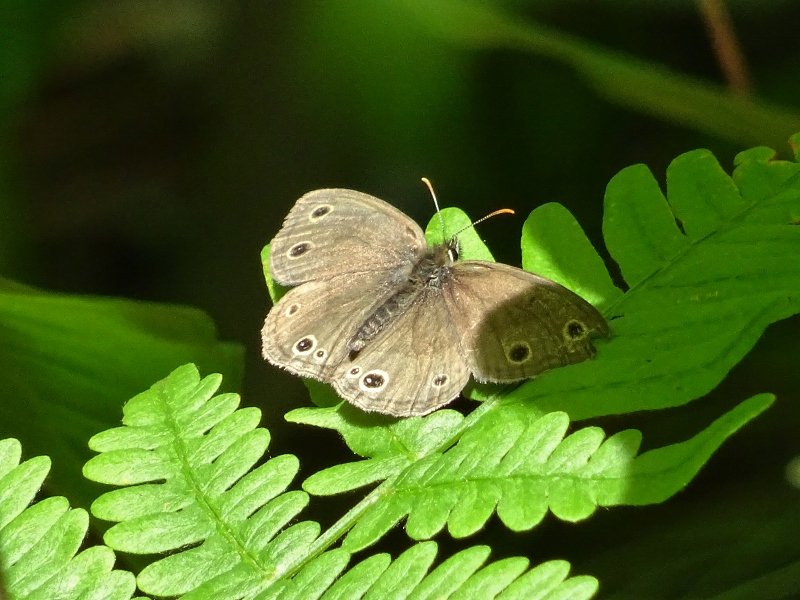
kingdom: Animalia
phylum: Arthropoda
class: Insecta
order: Lepidoptera
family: Nymphalidae
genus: Euptychia
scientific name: Euptychia cymela
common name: Little Wood Satyr
